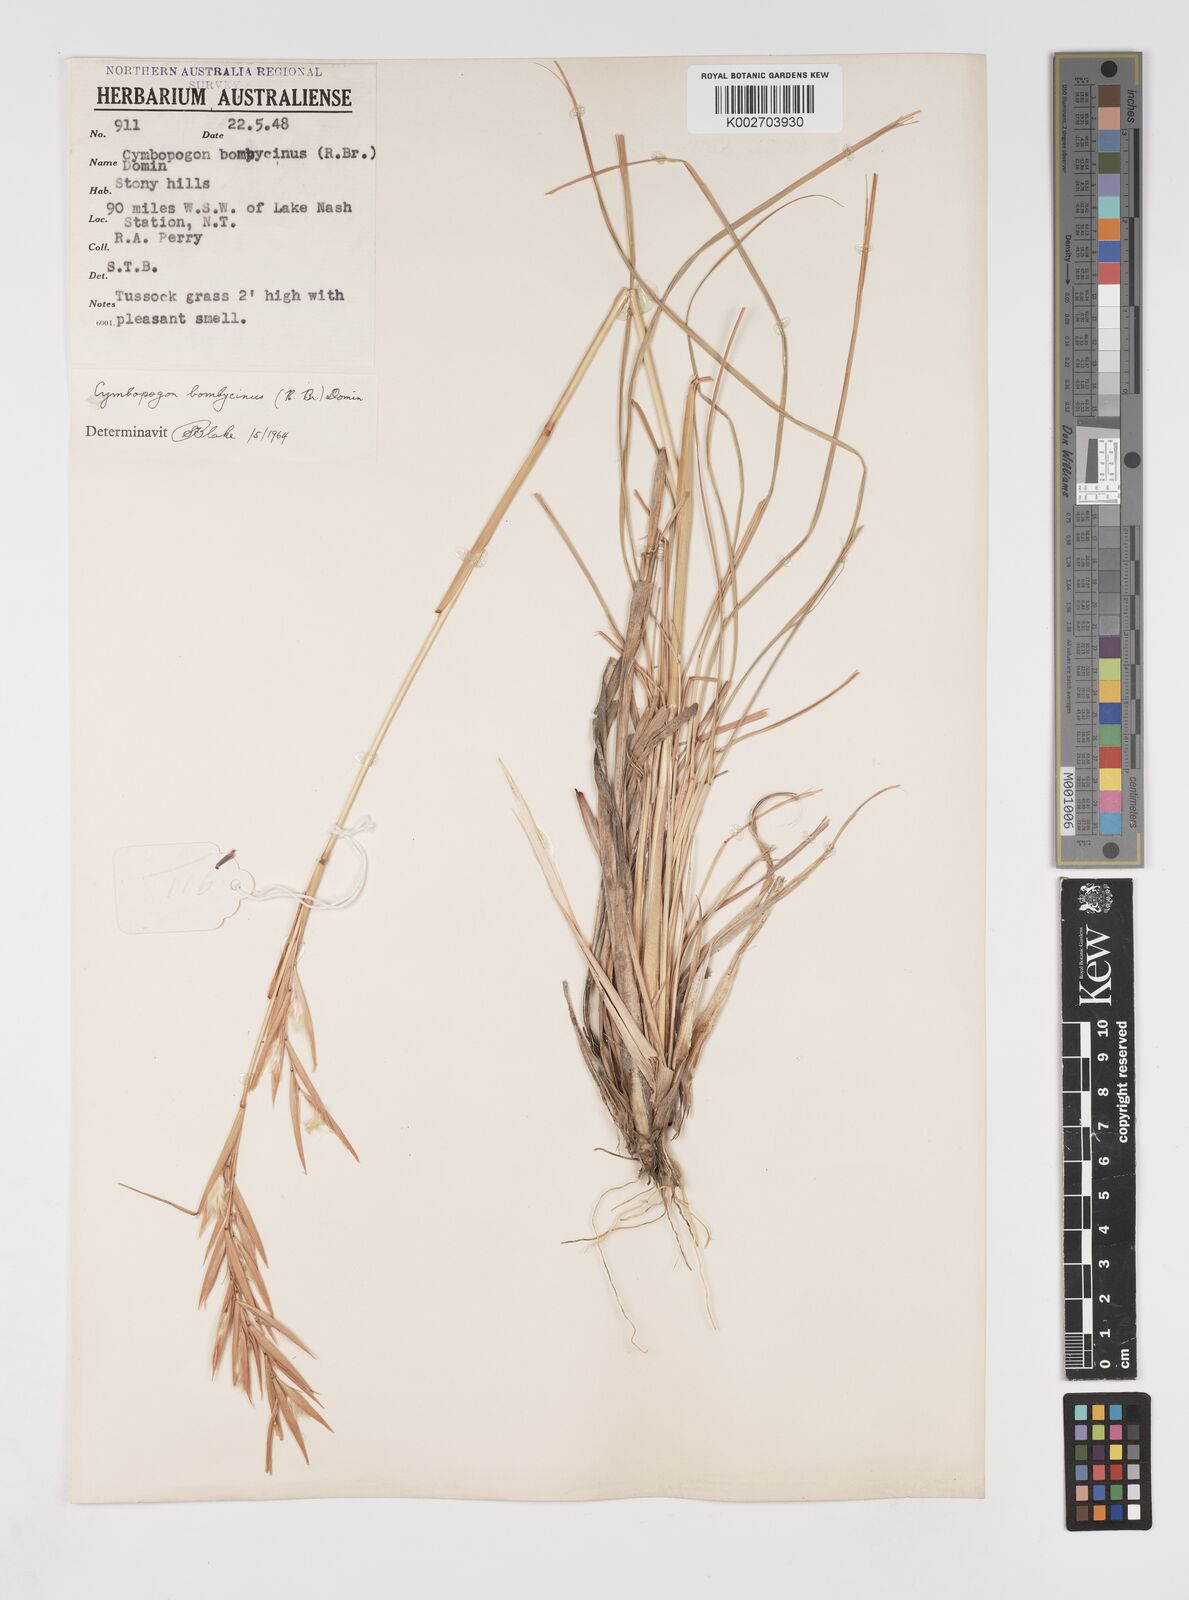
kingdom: Plantae
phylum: Tracheophyta
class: Liliopsida
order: Poales
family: Poaceae
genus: Cymbopogon
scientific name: Cymbopogon obtectus
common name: Silky heads
